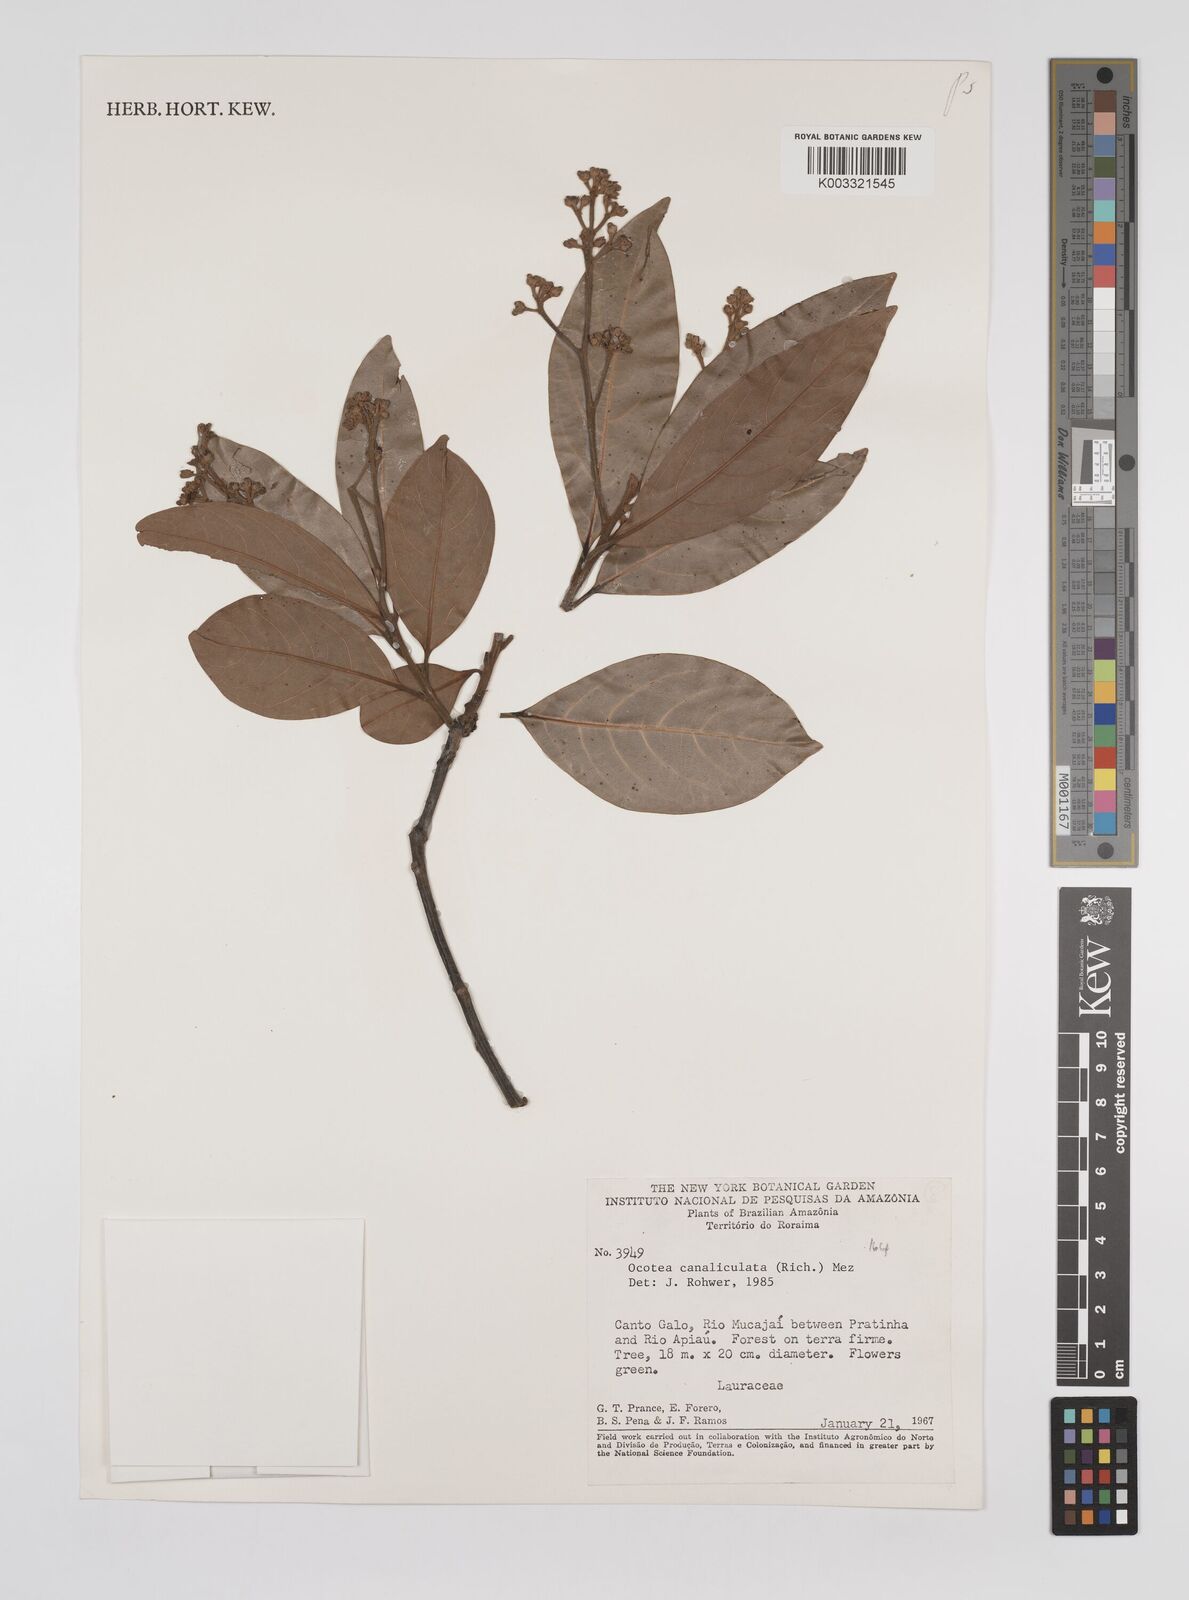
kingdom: Plantae
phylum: Tracheophyta
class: Magnoliopsida
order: Laurales
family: Lauraceae
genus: Ocotea
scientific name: Ocotea canaliculata
